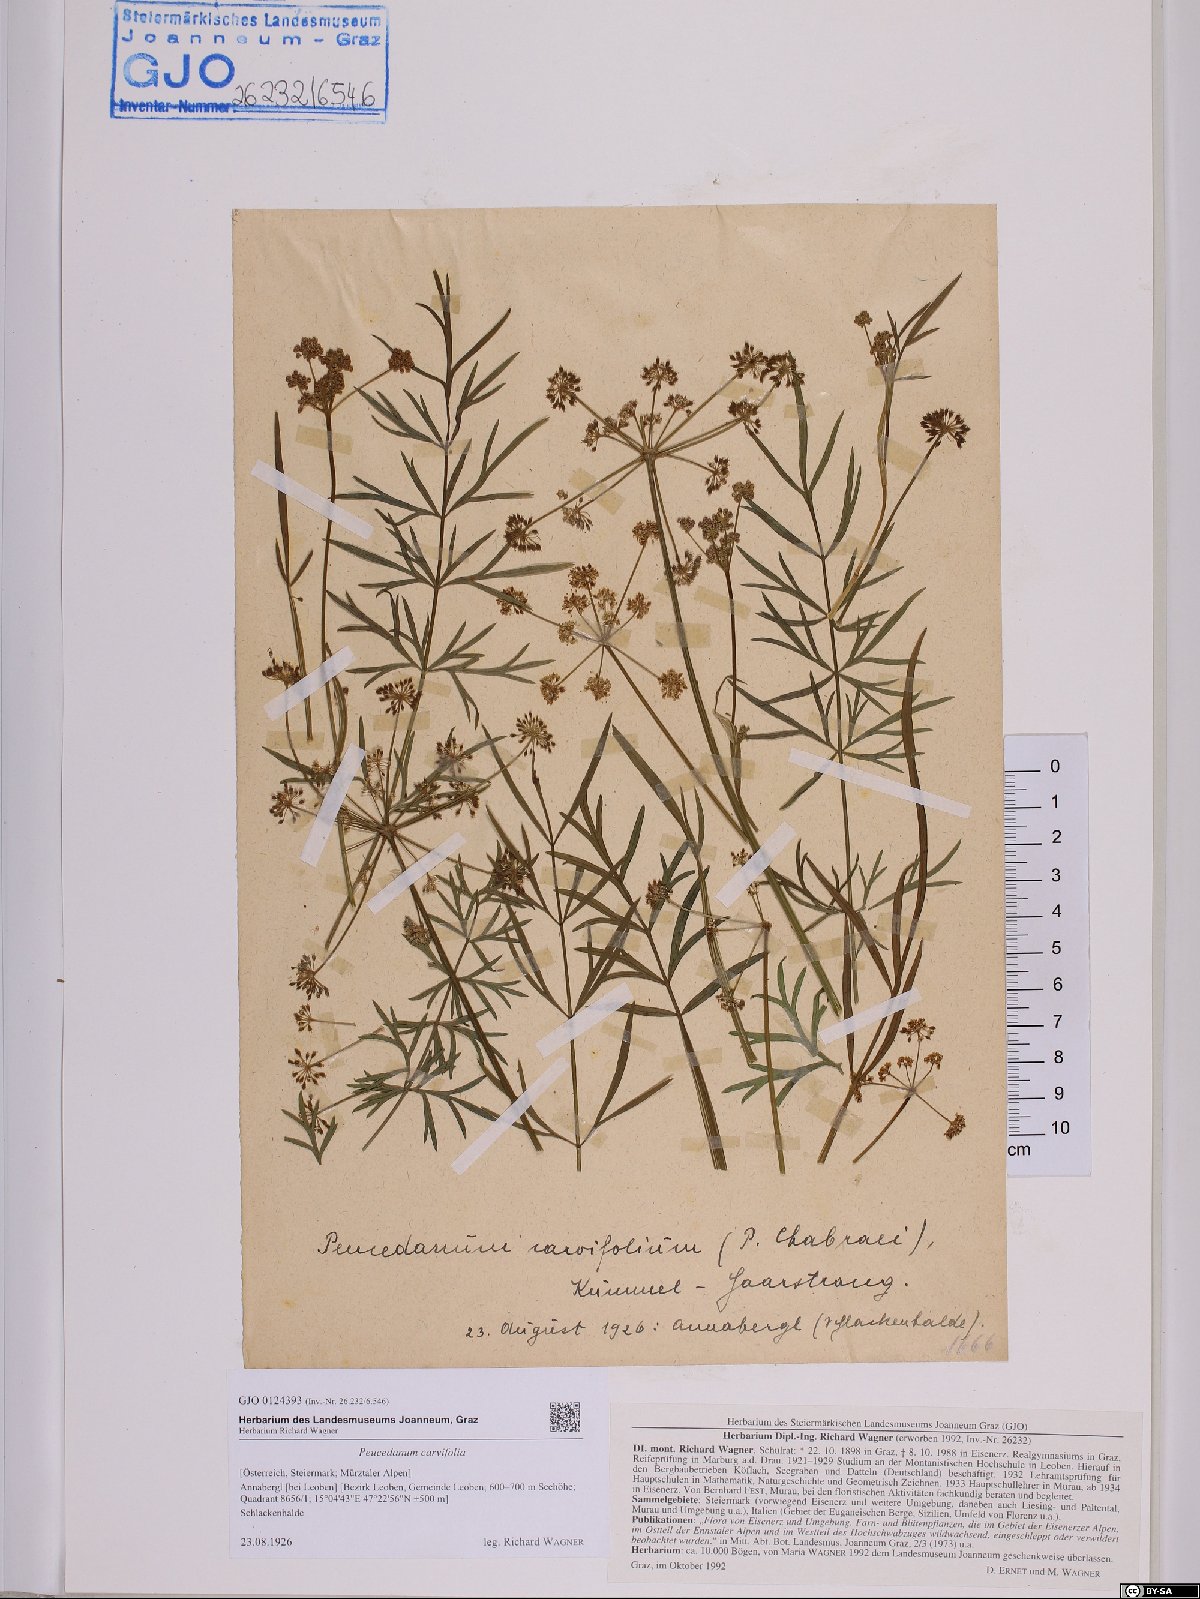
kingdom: Plantae
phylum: Tracheophyta
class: Magnoliopsida
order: Apiales
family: Apiaceae
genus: Dichoropetalum
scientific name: Dichoropetalum carvifolia
